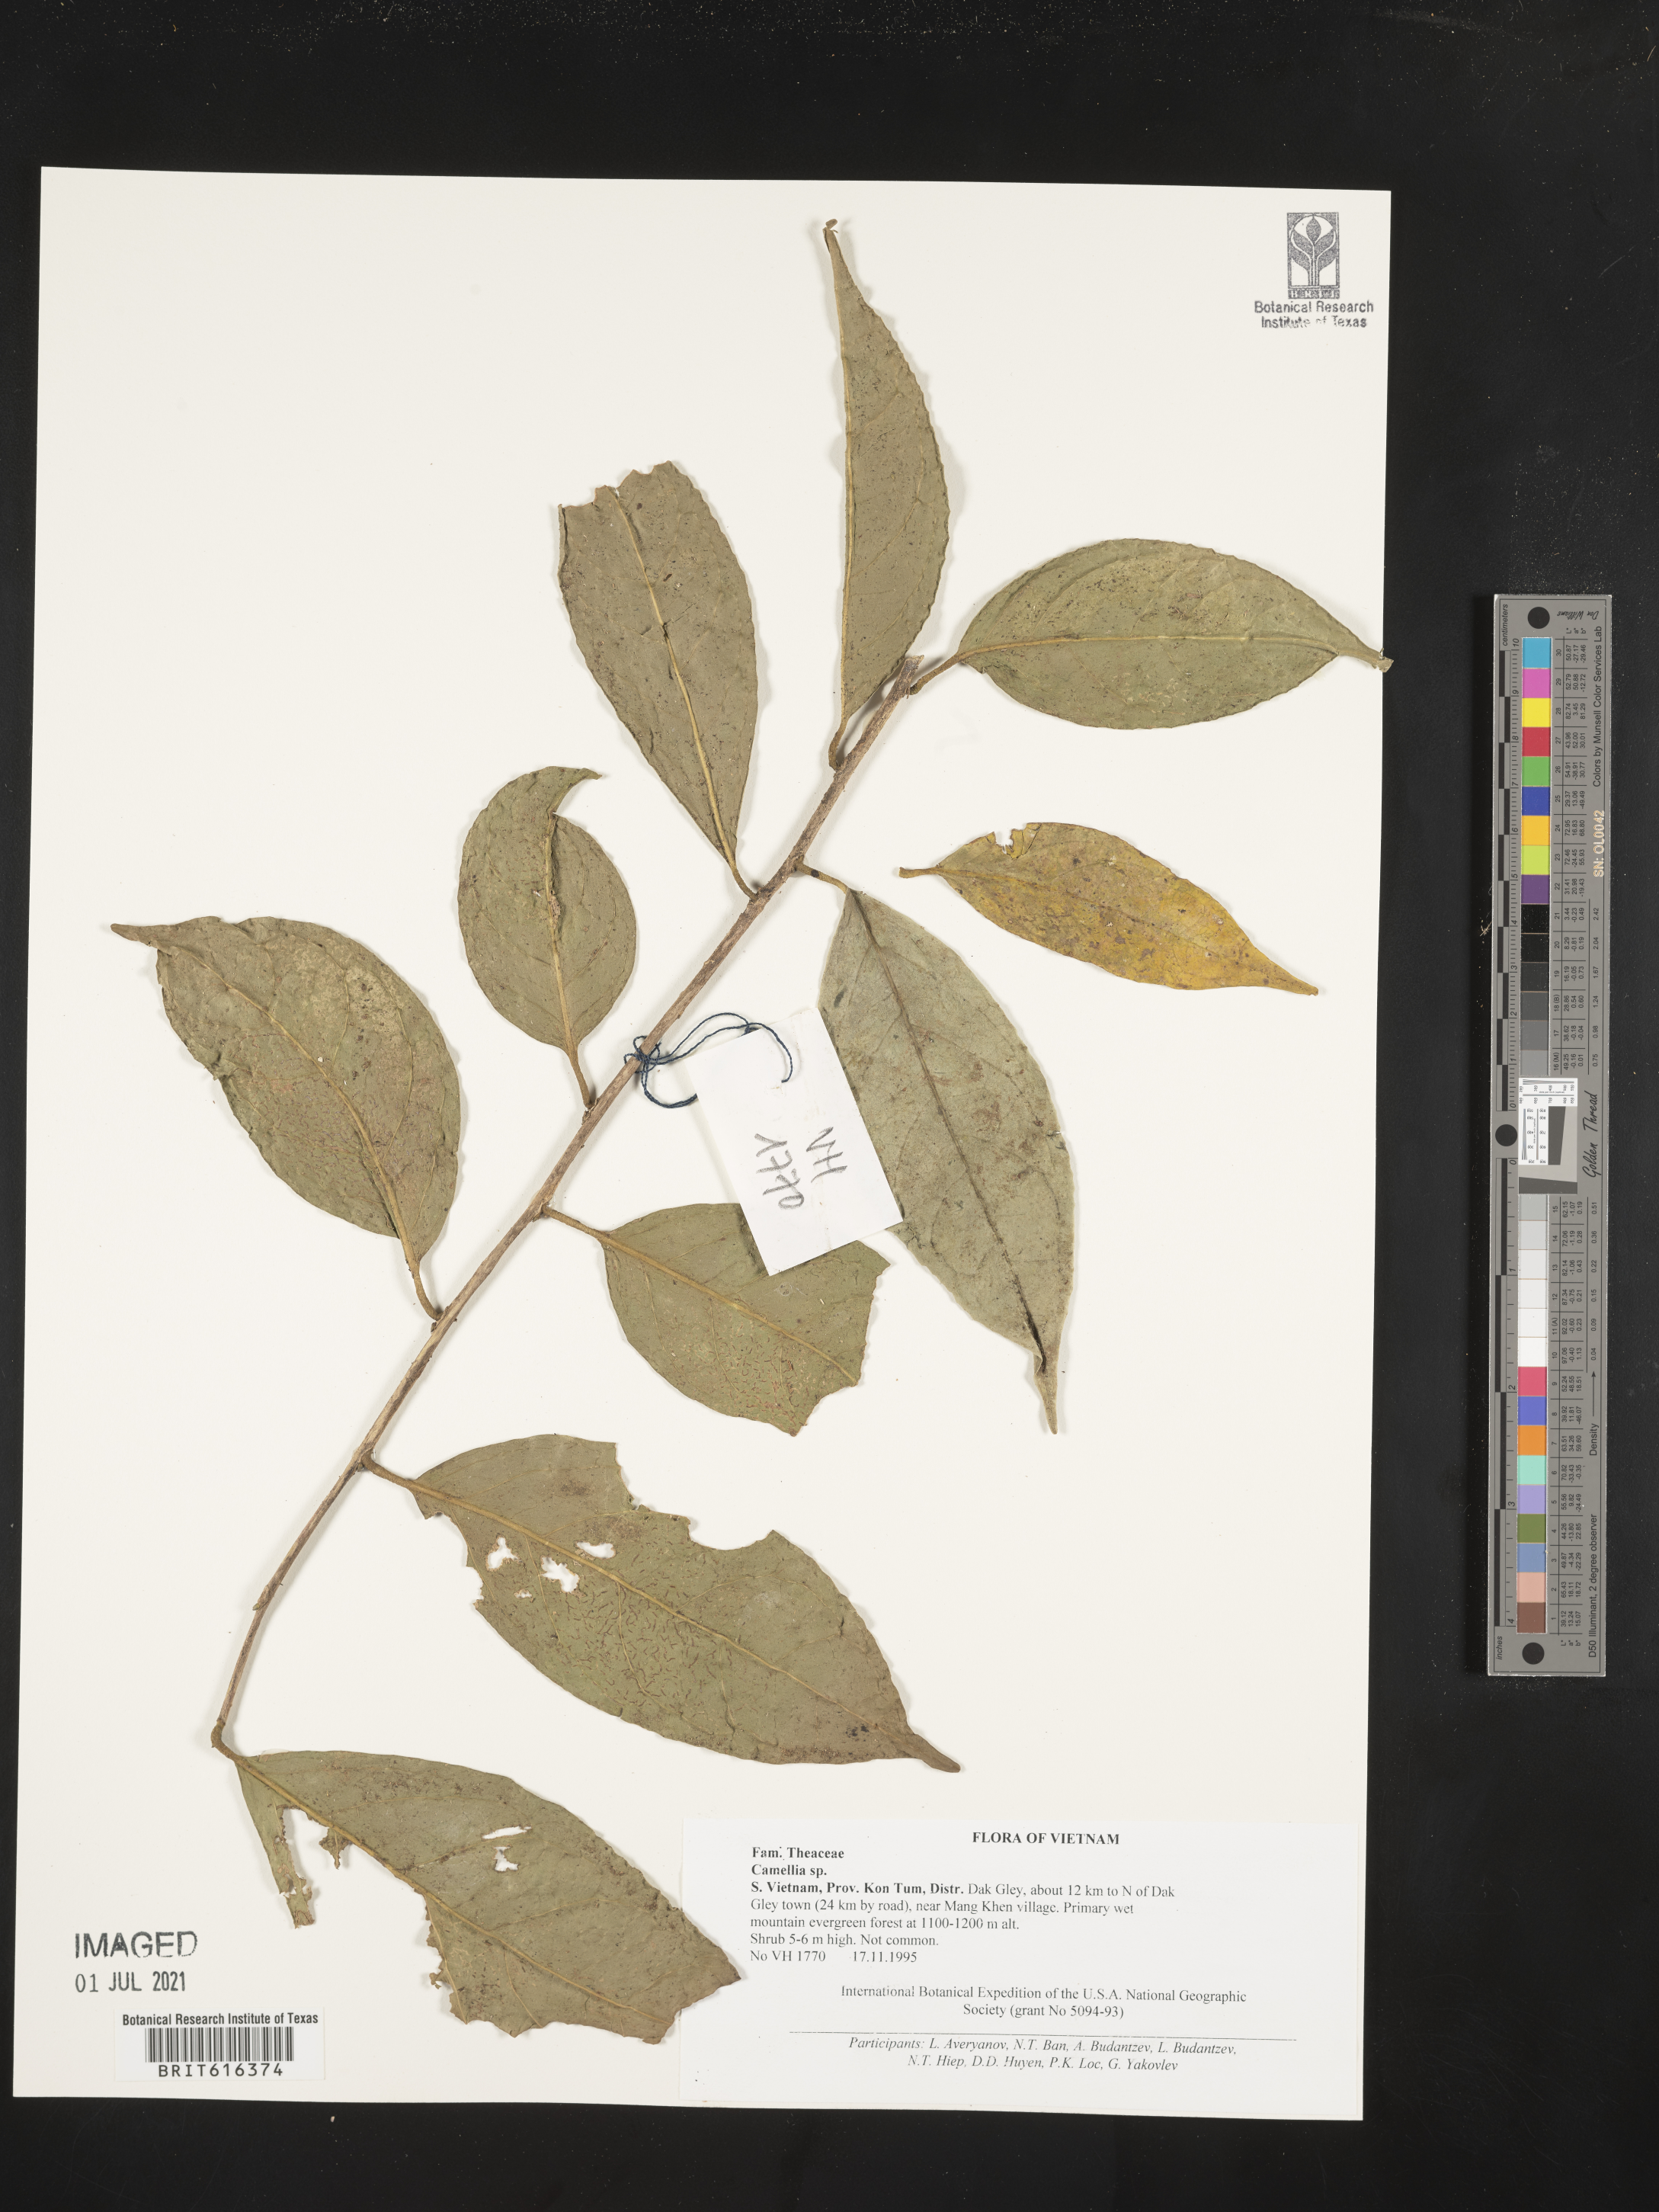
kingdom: Plantae
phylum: Tracheophyta
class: Magnoliopsida
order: Ericales
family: Theaceae
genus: Camellia
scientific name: Camellia
